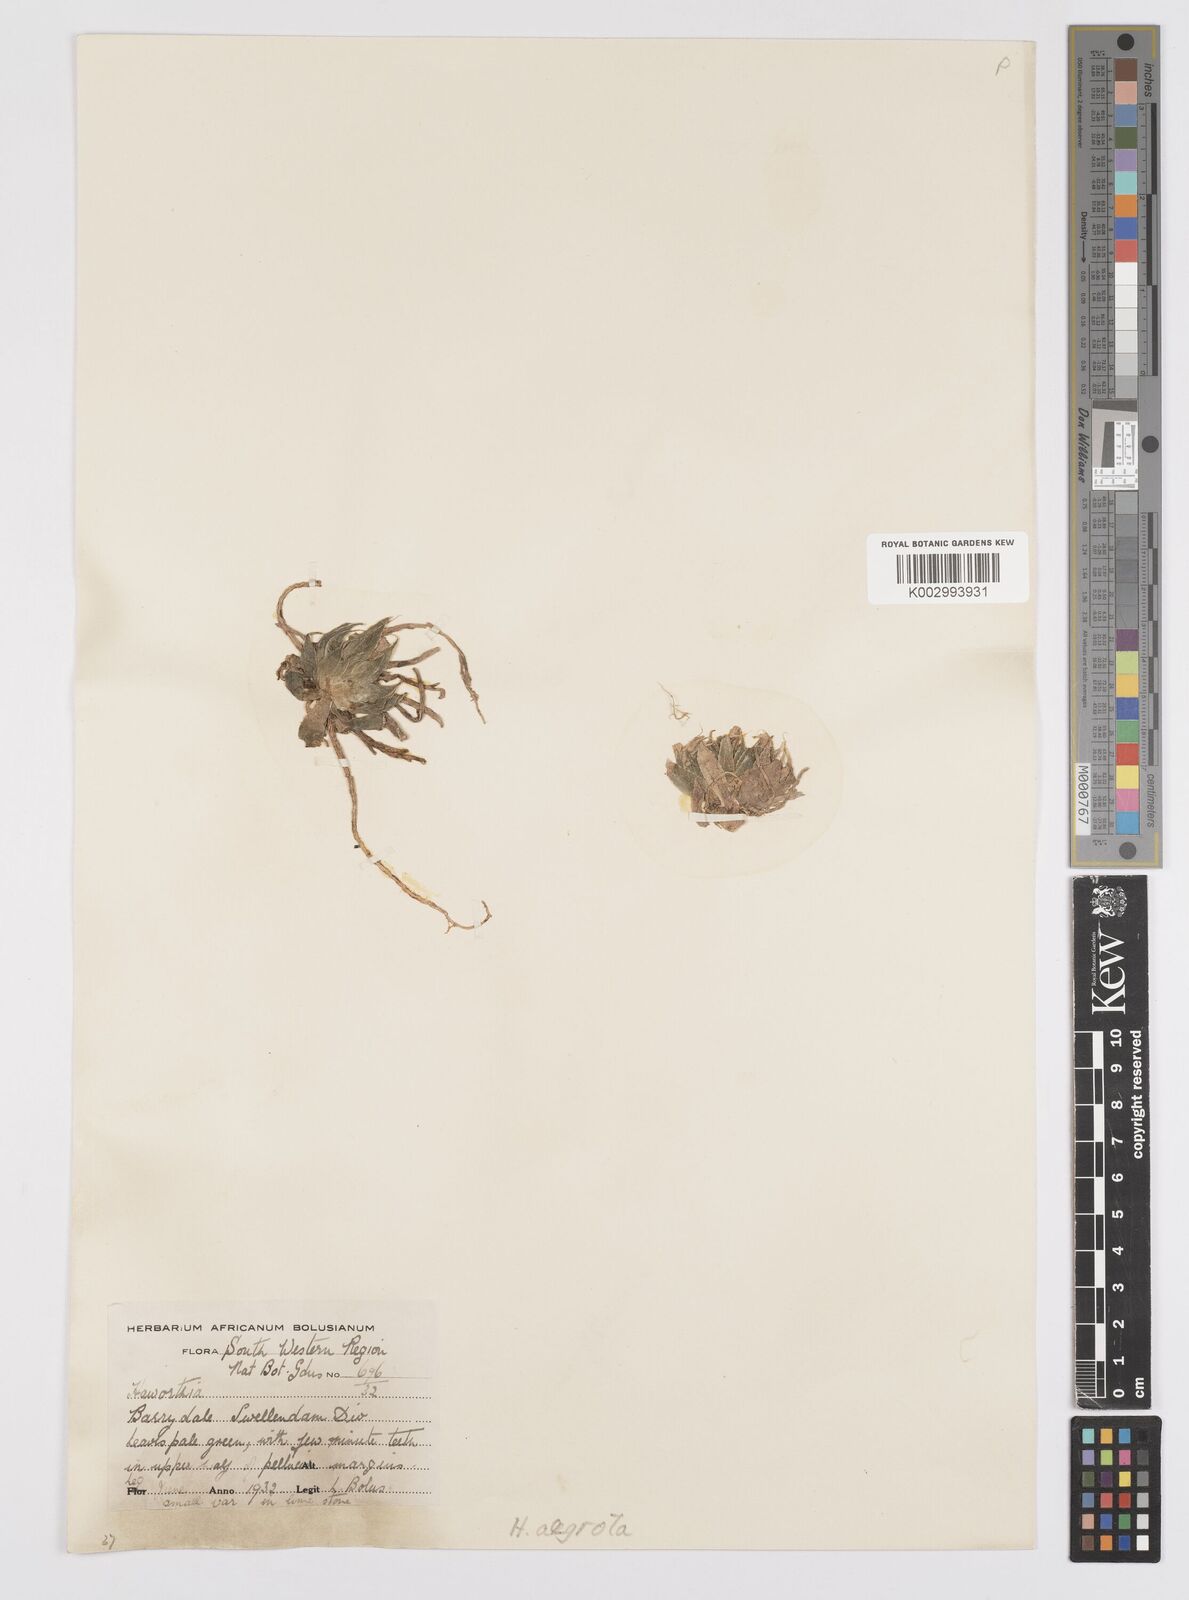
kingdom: Plantae
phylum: Tracheophyta
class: Liliopsida
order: Asparagales
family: Asphodelaceae
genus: Haworthia
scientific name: Haworthia herbacea
